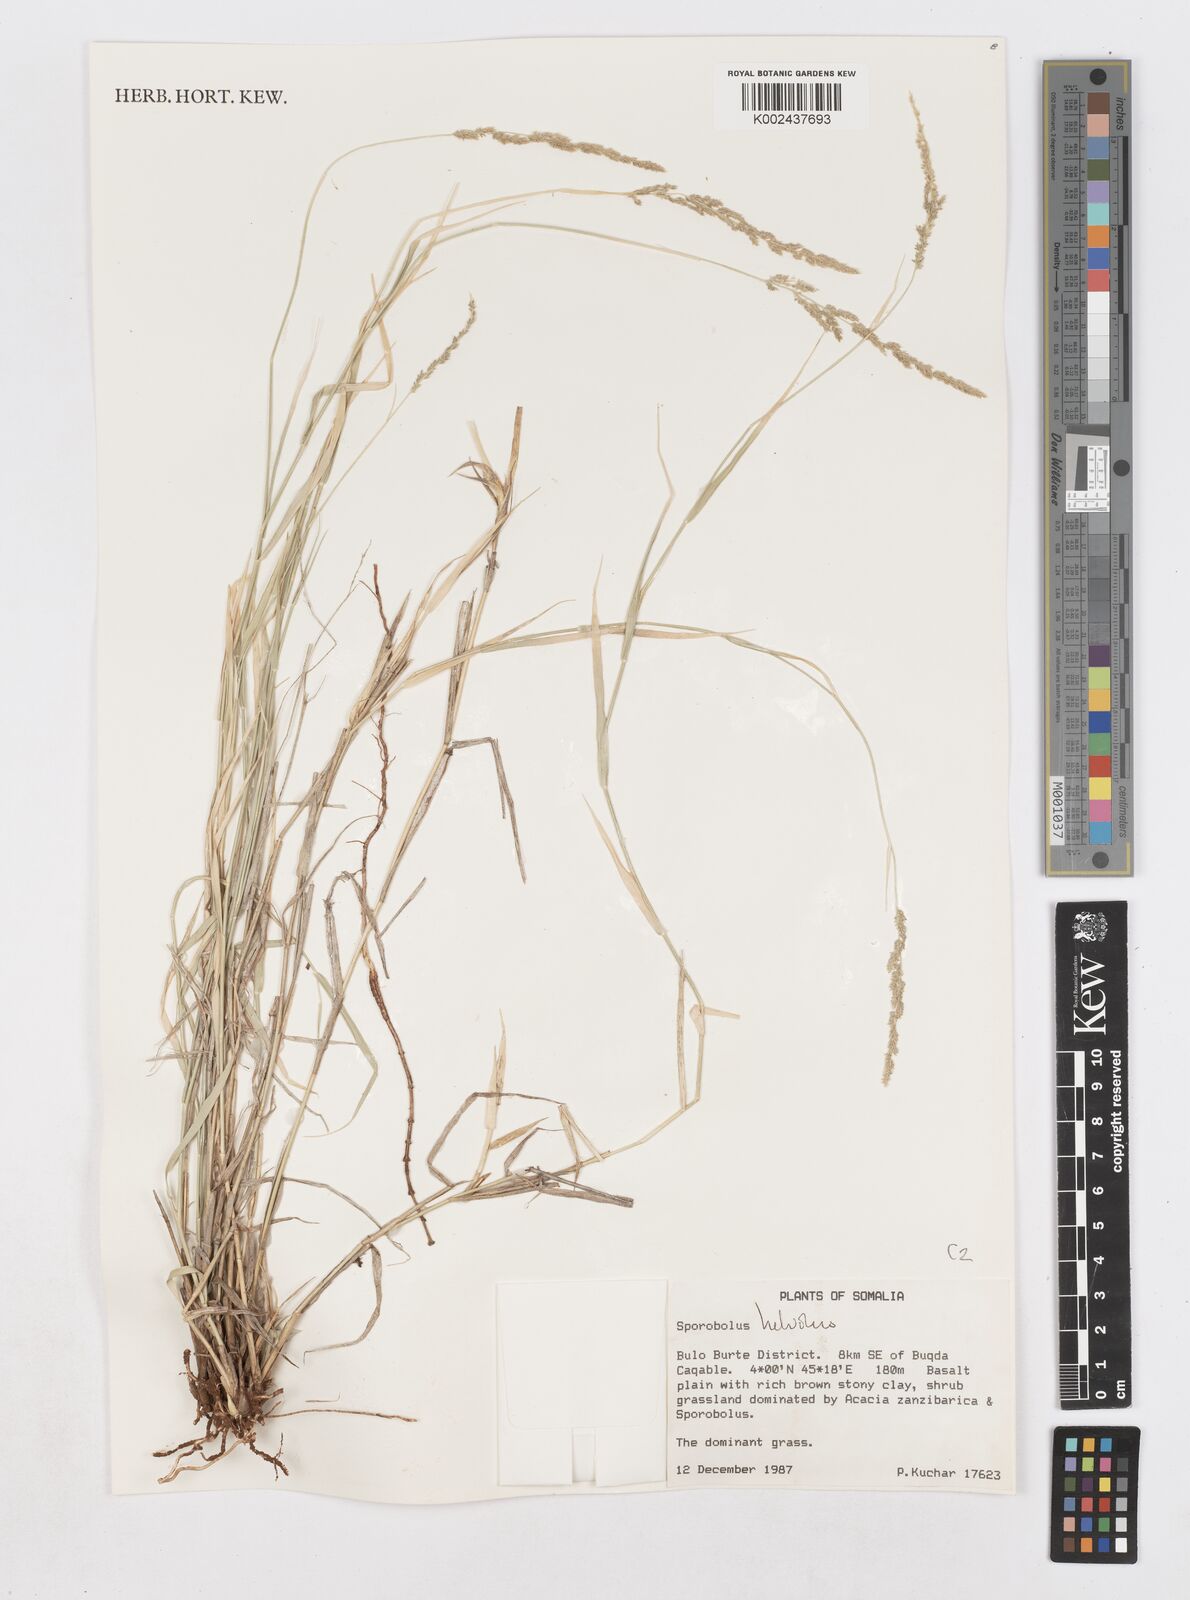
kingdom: Plantae
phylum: Tracheophyta
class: Liliopsida
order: Poales
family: Poaceae
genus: Sporobolus
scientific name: Sporobolus helvolus
